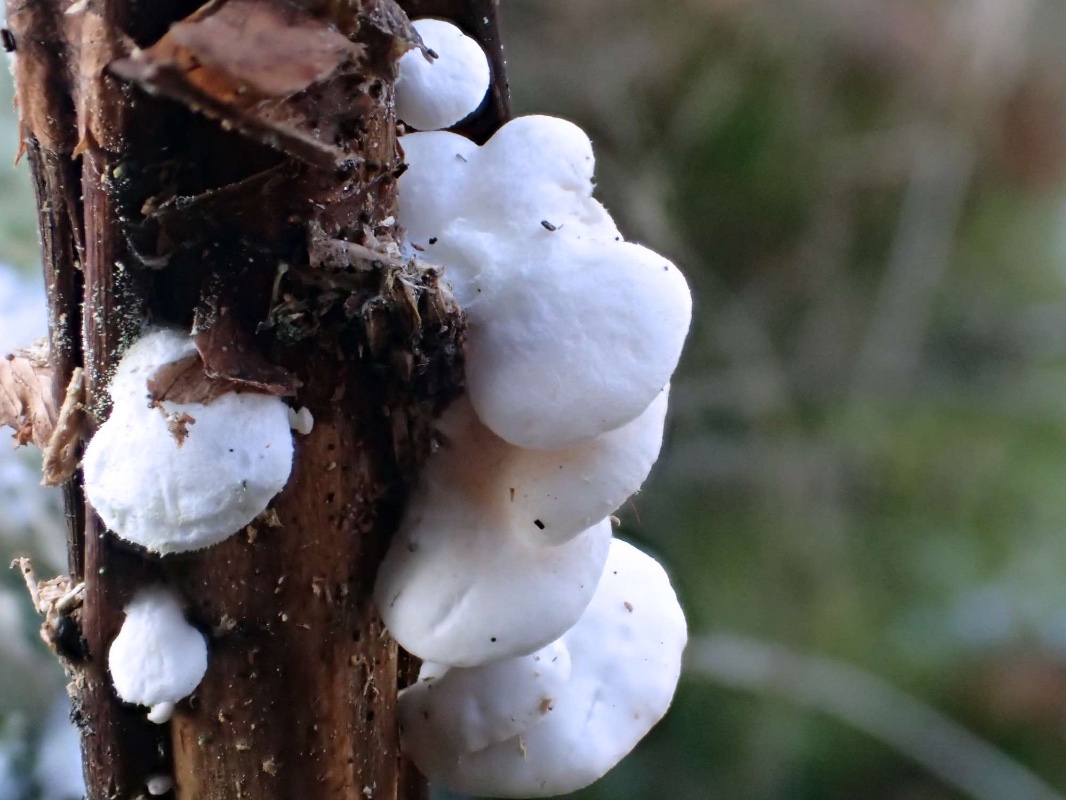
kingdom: Fungi
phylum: Basidiomycota
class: Agaricomycetes
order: Agaricales
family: Crepidotaceae
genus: Crepidotus
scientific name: Crepidotus variabilis
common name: forskelligformet muslingesvamp
